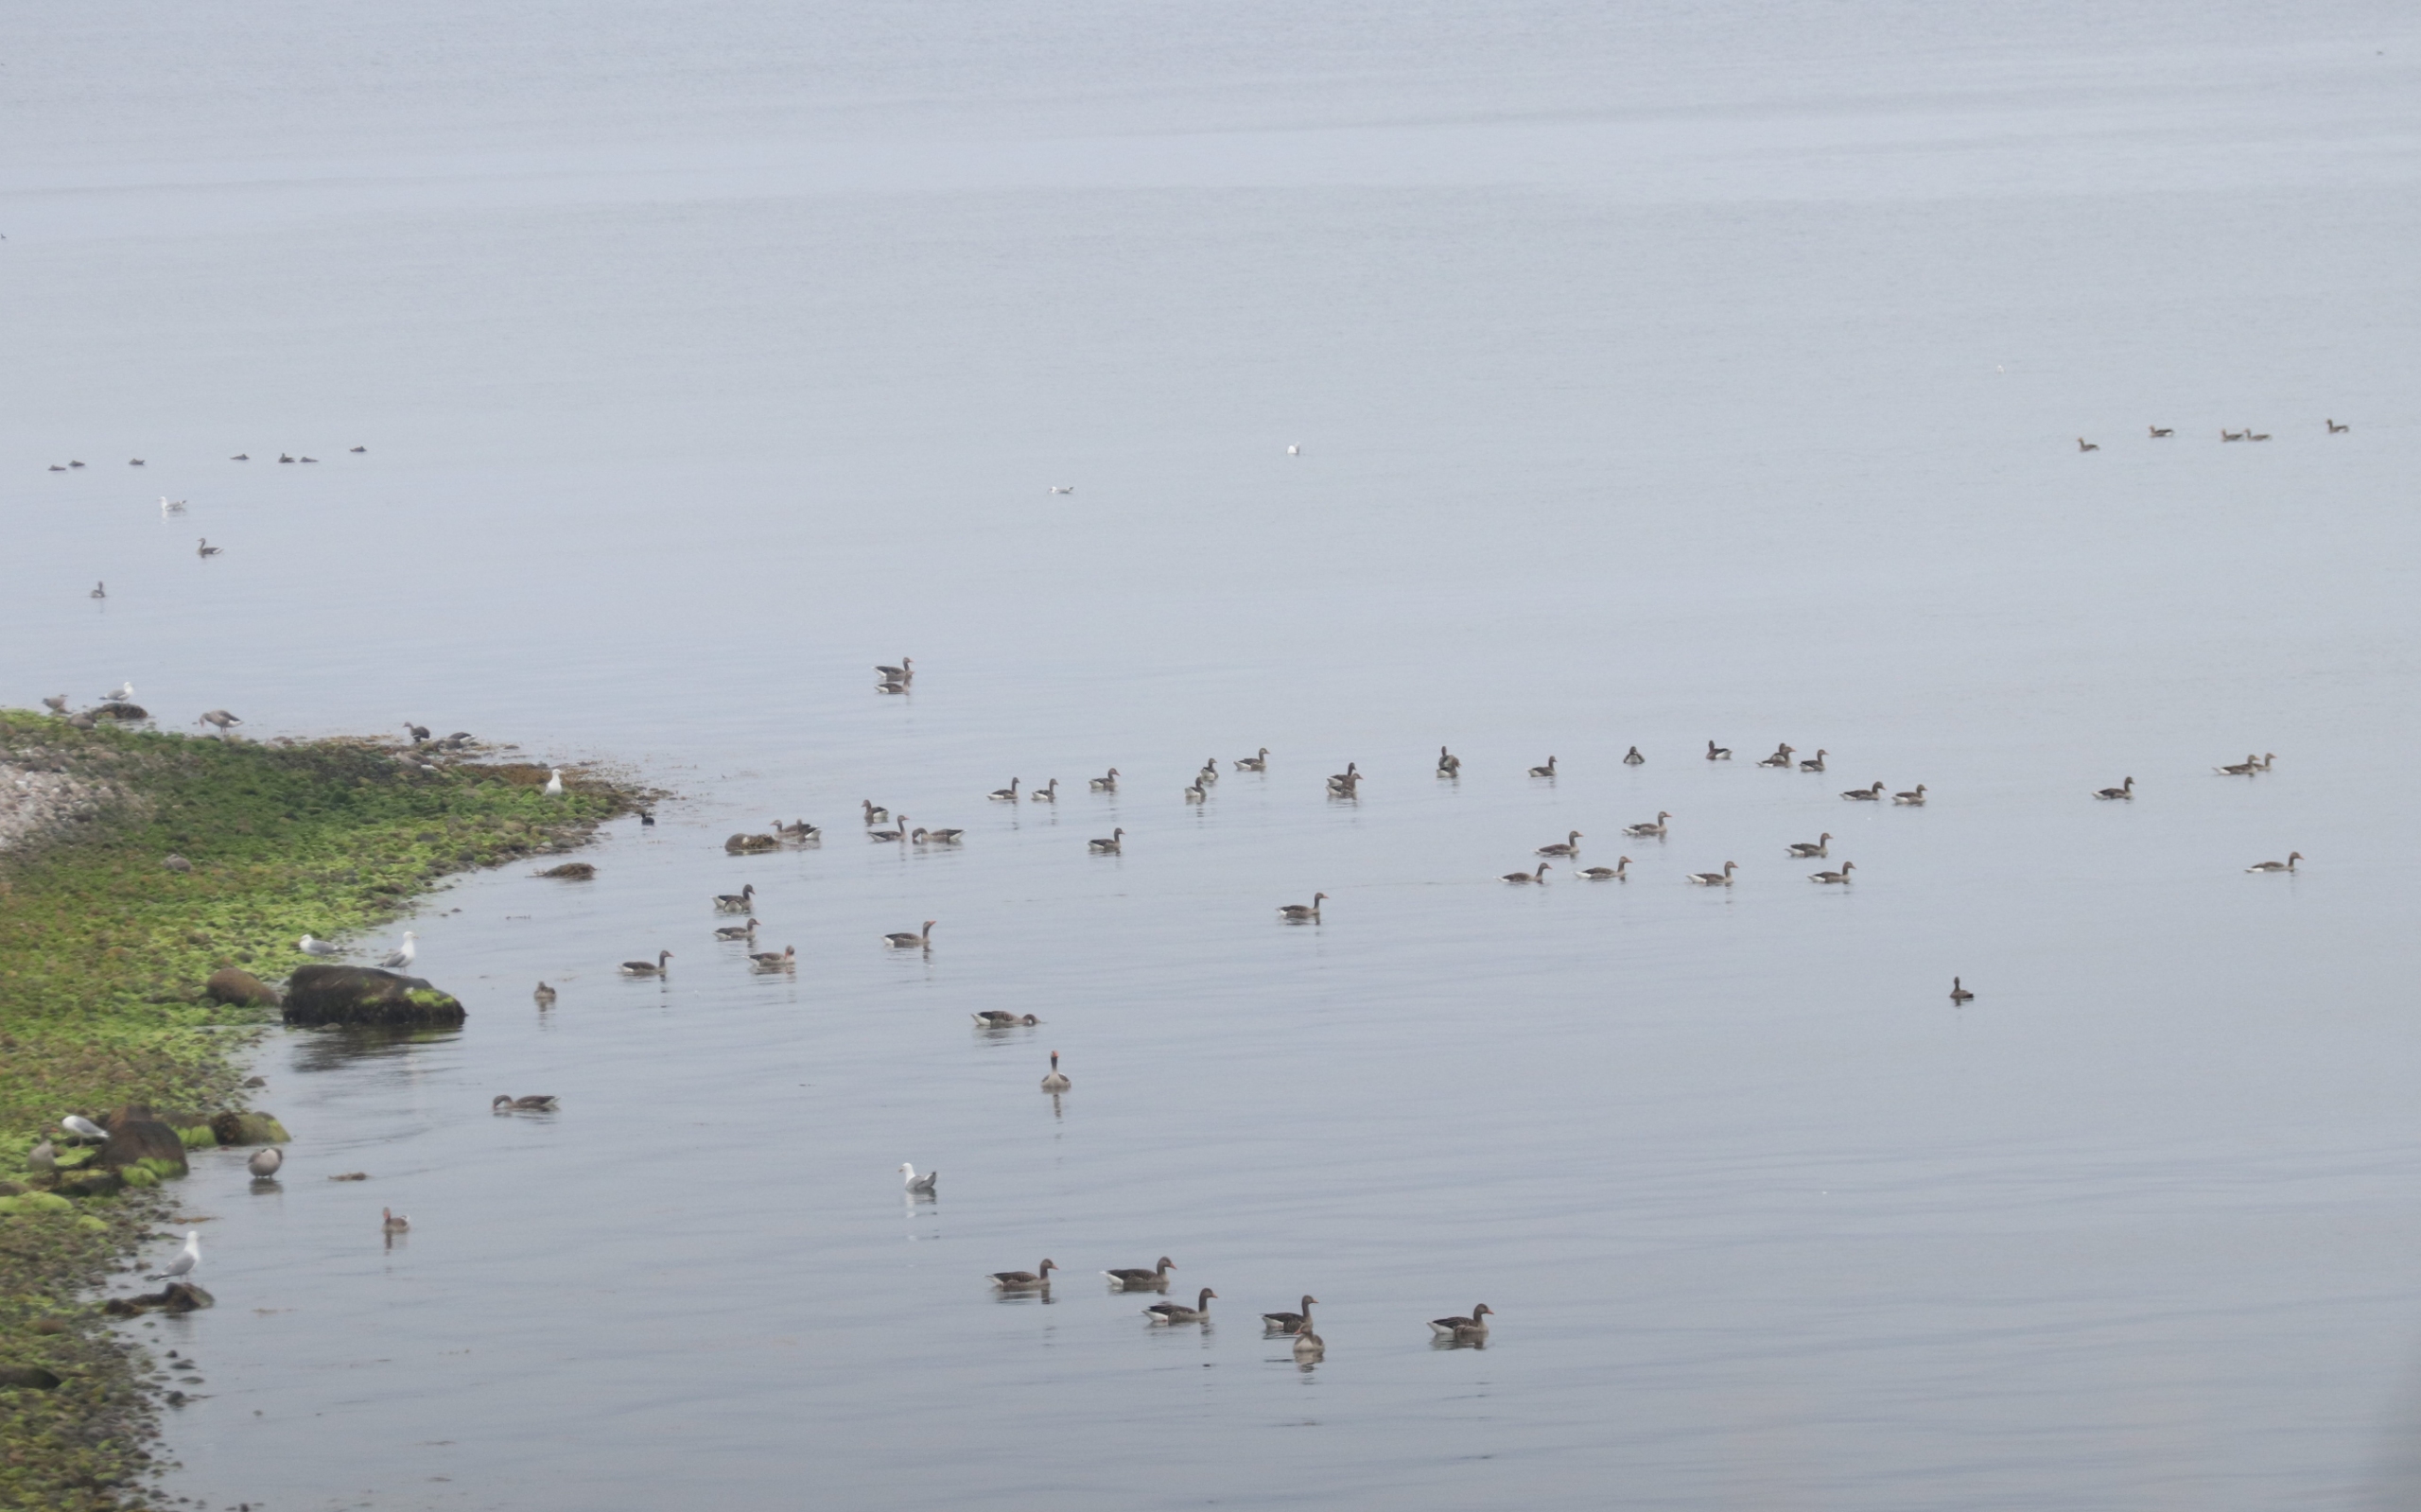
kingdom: Animalia
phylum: Chordata
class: Aves
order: Anseriformes
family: Anatidae
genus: Anser
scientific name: Anser anser
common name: Grågås
